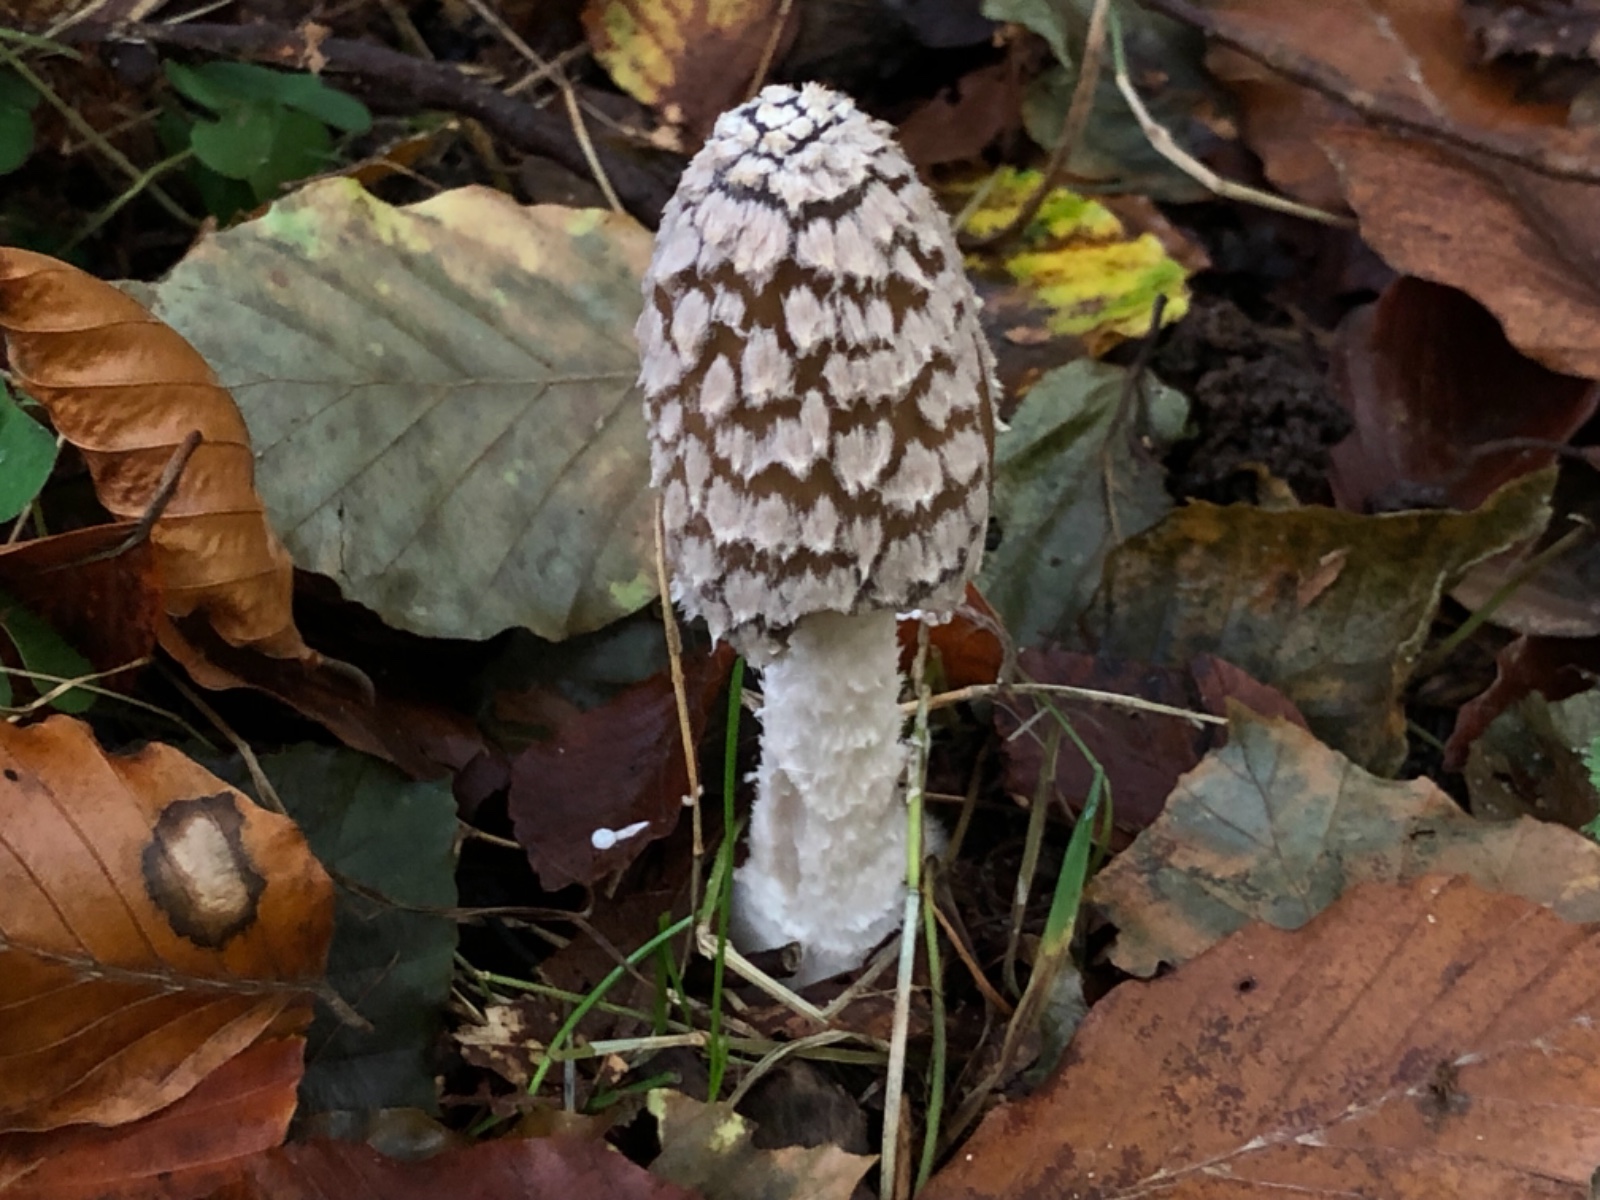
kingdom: Fungi
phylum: Basidiomycota
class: Agaricomycetes
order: Agaricales
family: Psathyrellaceae
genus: Coprinopsis
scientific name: Coprinopsis picacea
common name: skade-blækhat
